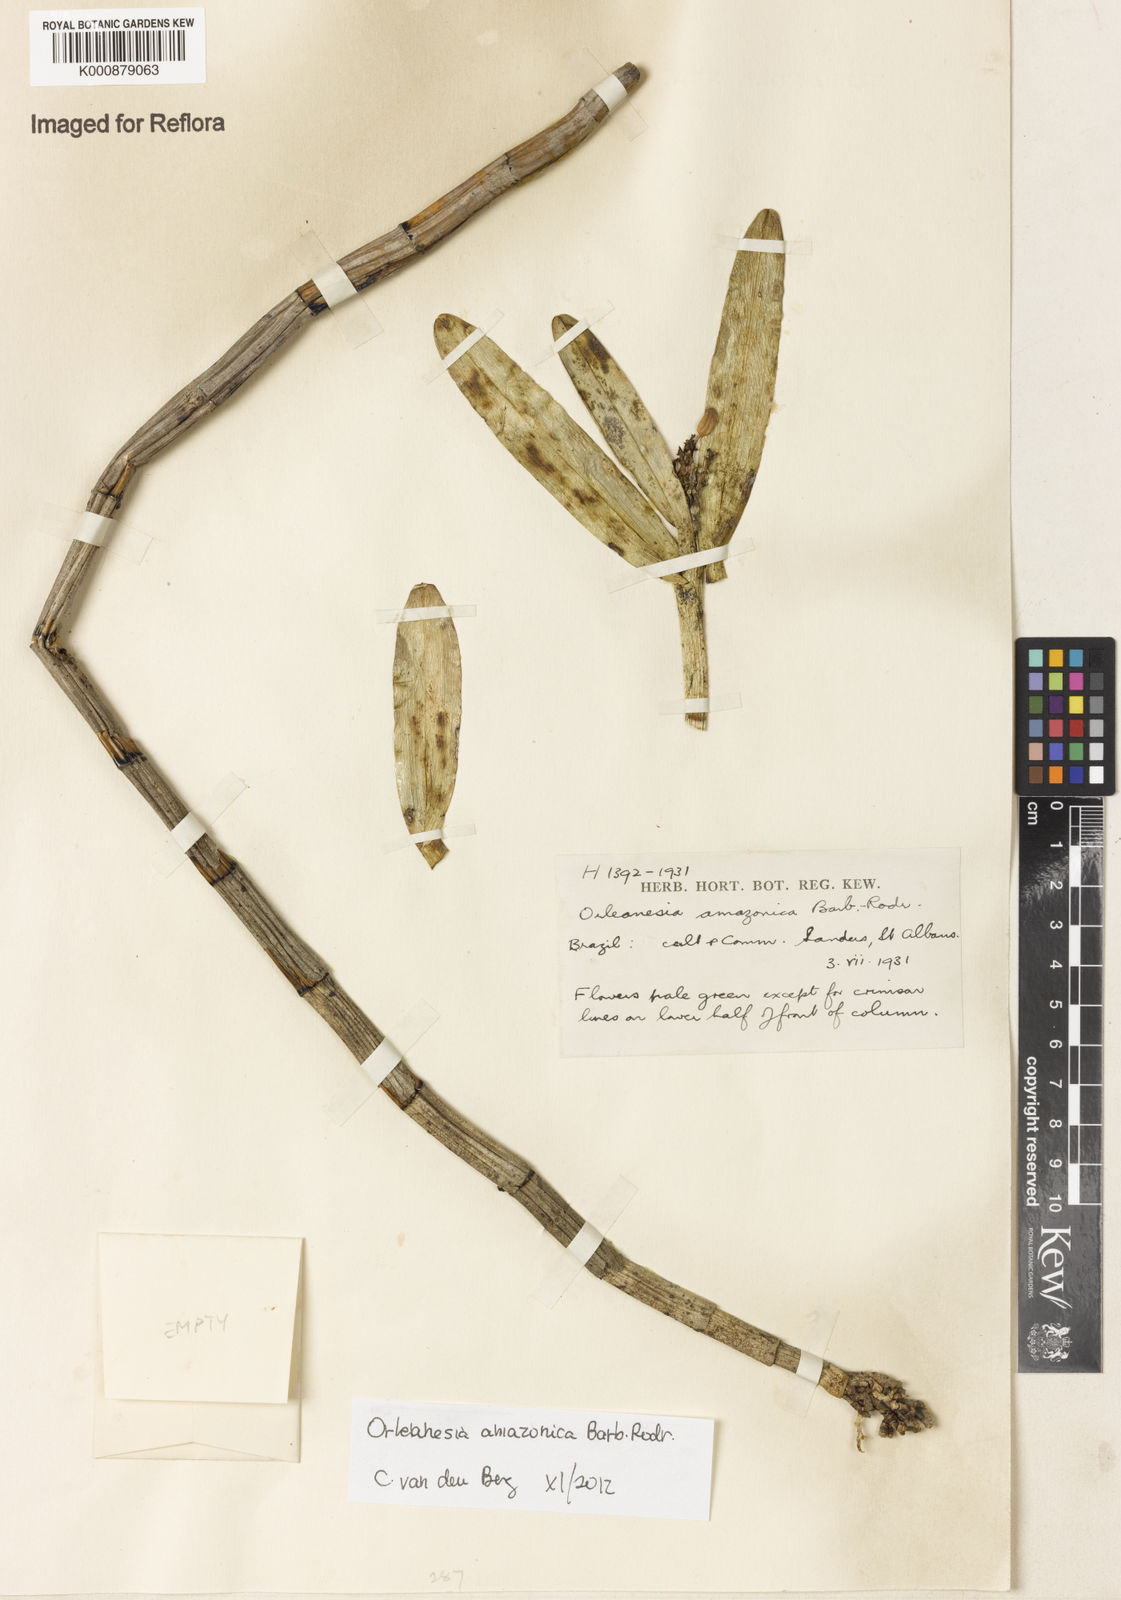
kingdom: Plantae
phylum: Tracheophyta
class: Liliopsida
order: Asparagales
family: Orchidaceae
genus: Orleanesia
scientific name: Orleanesia amazonica
